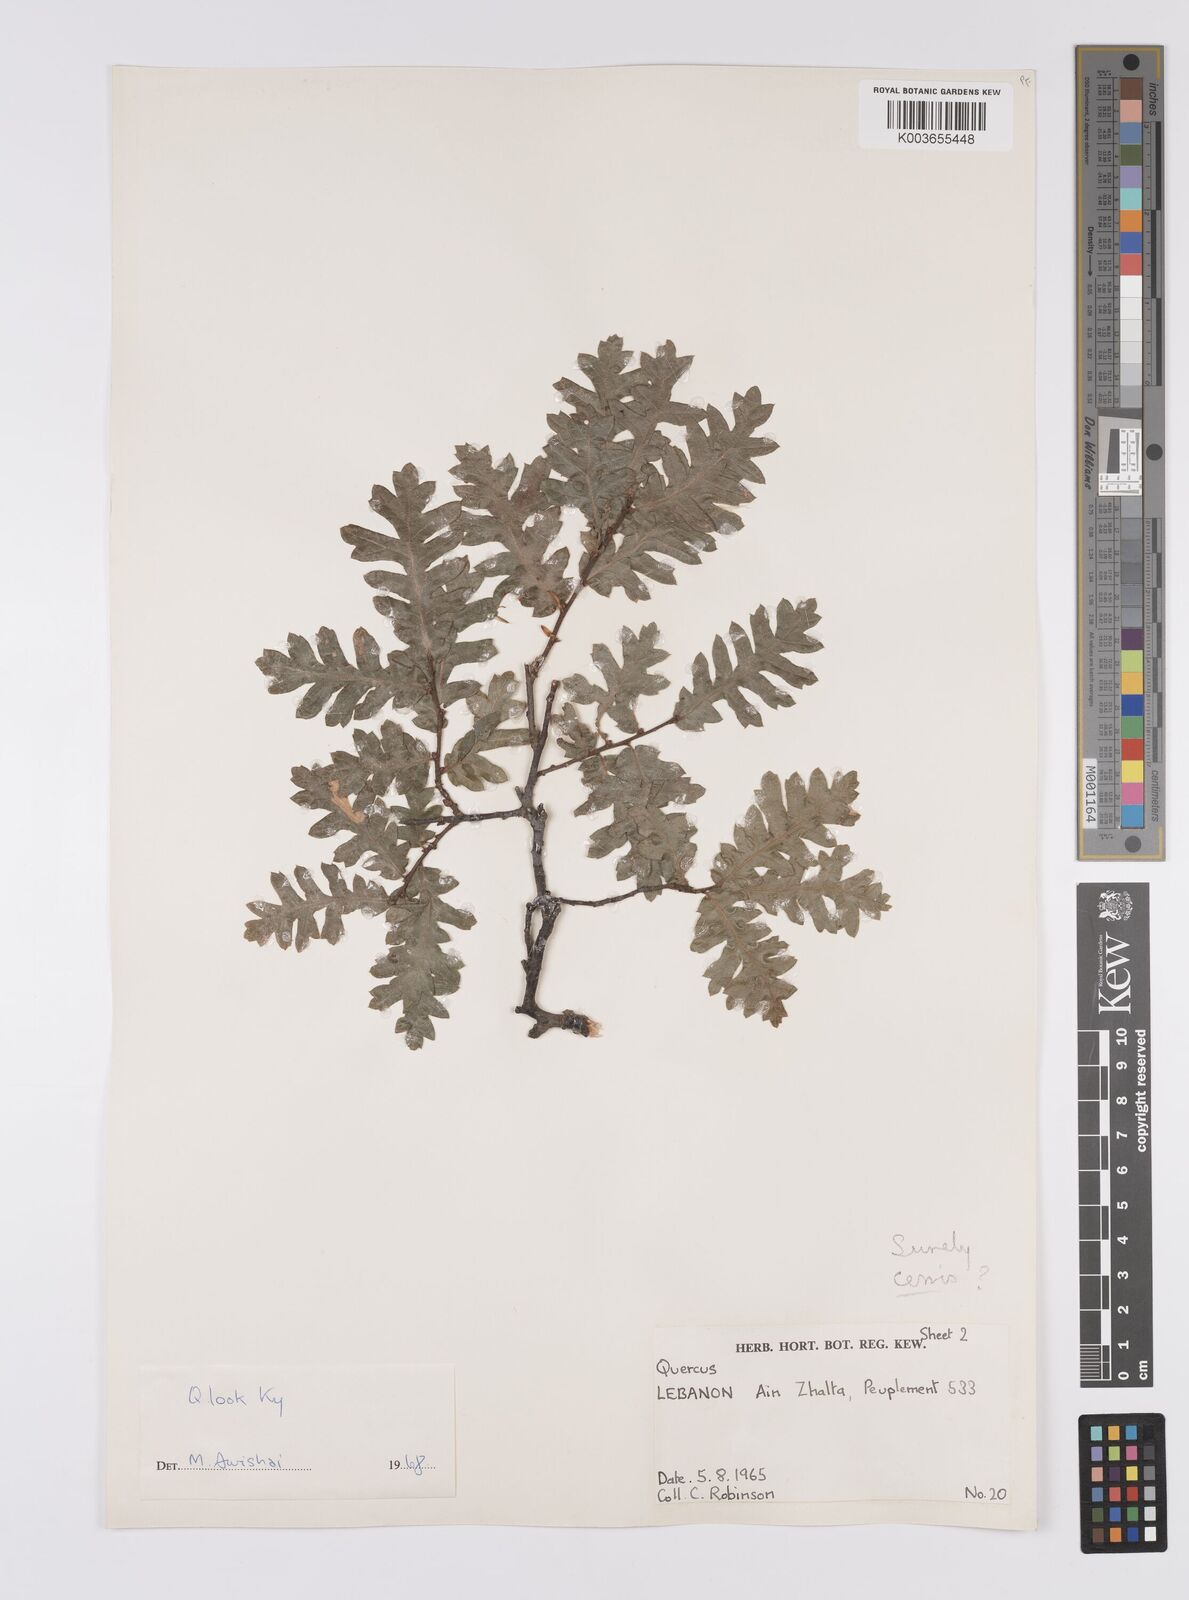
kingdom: Plantae
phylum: Tracheophyta
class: Magnoliopsida
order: Fagales
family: Fagaceae
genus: Quercus
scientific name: Quercus look
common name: Look oak
